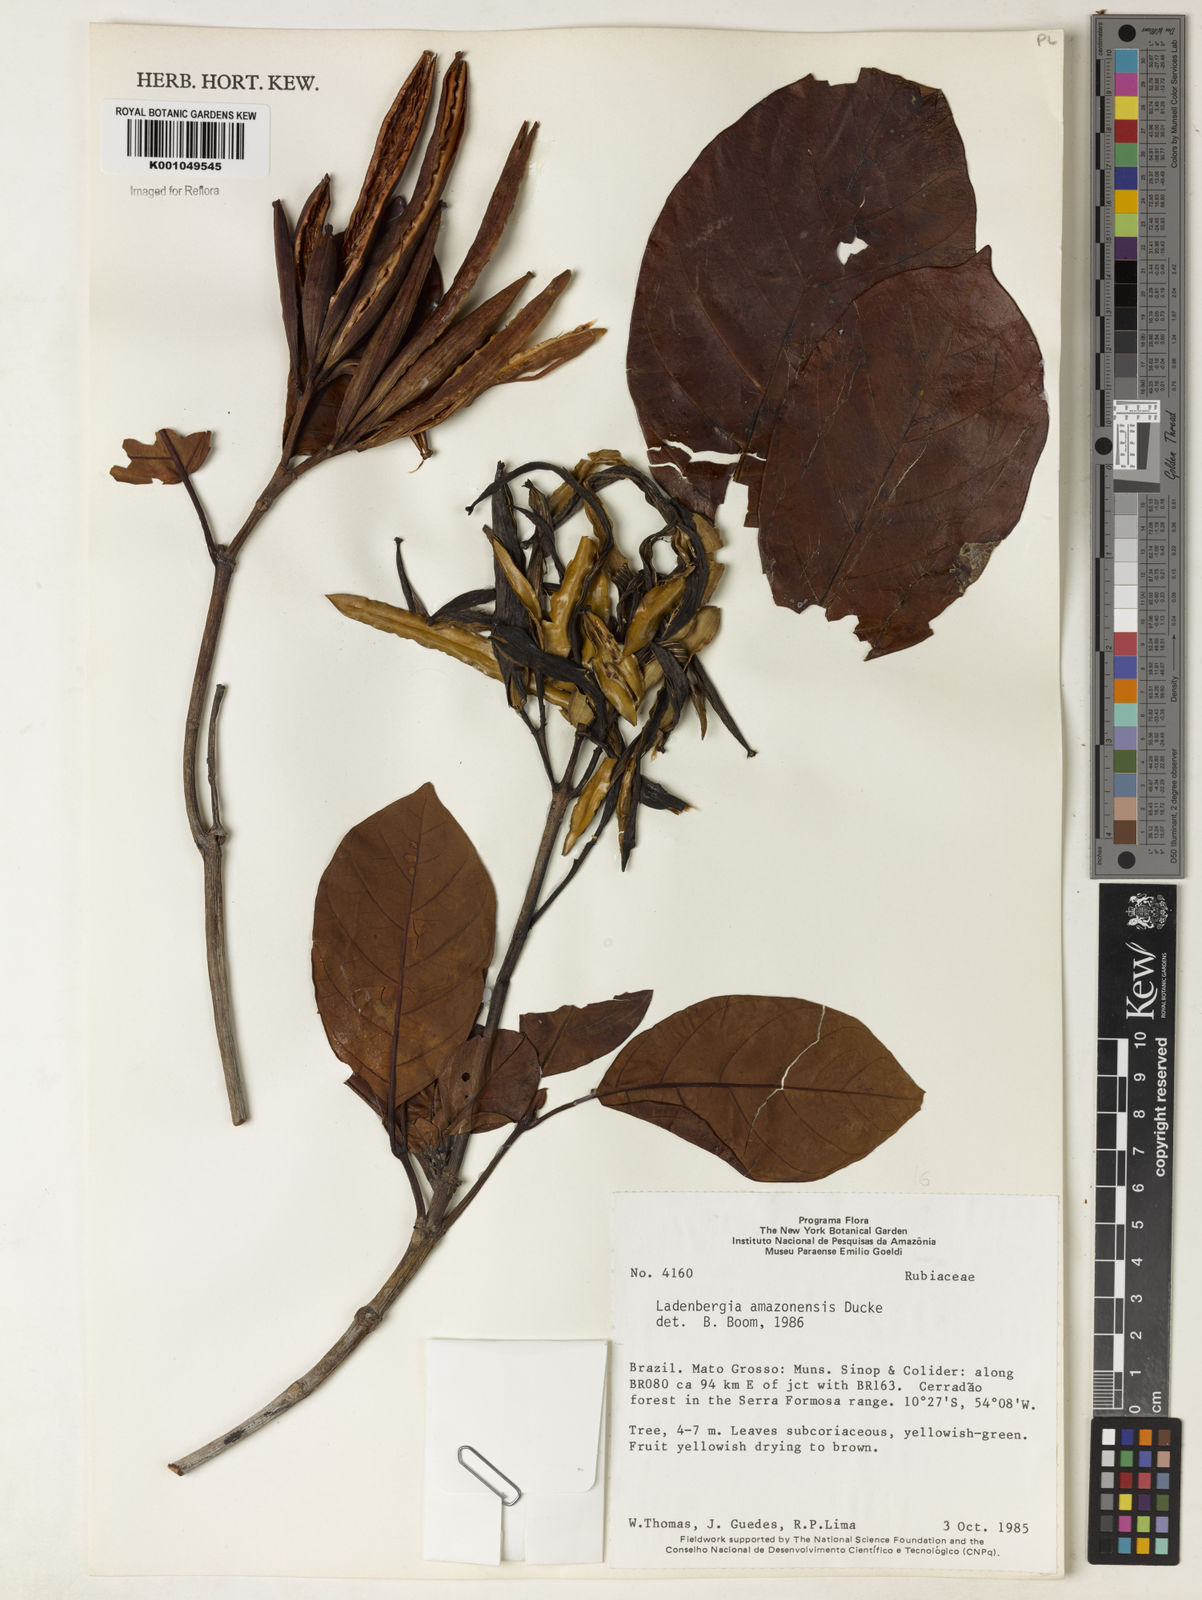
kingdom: Plantae
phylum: Tracheophyta
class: Magnoliopsida
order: Gentianales
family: Rubiaceae
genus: Ladenbergia
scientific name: Ladenbergia amazonensis
